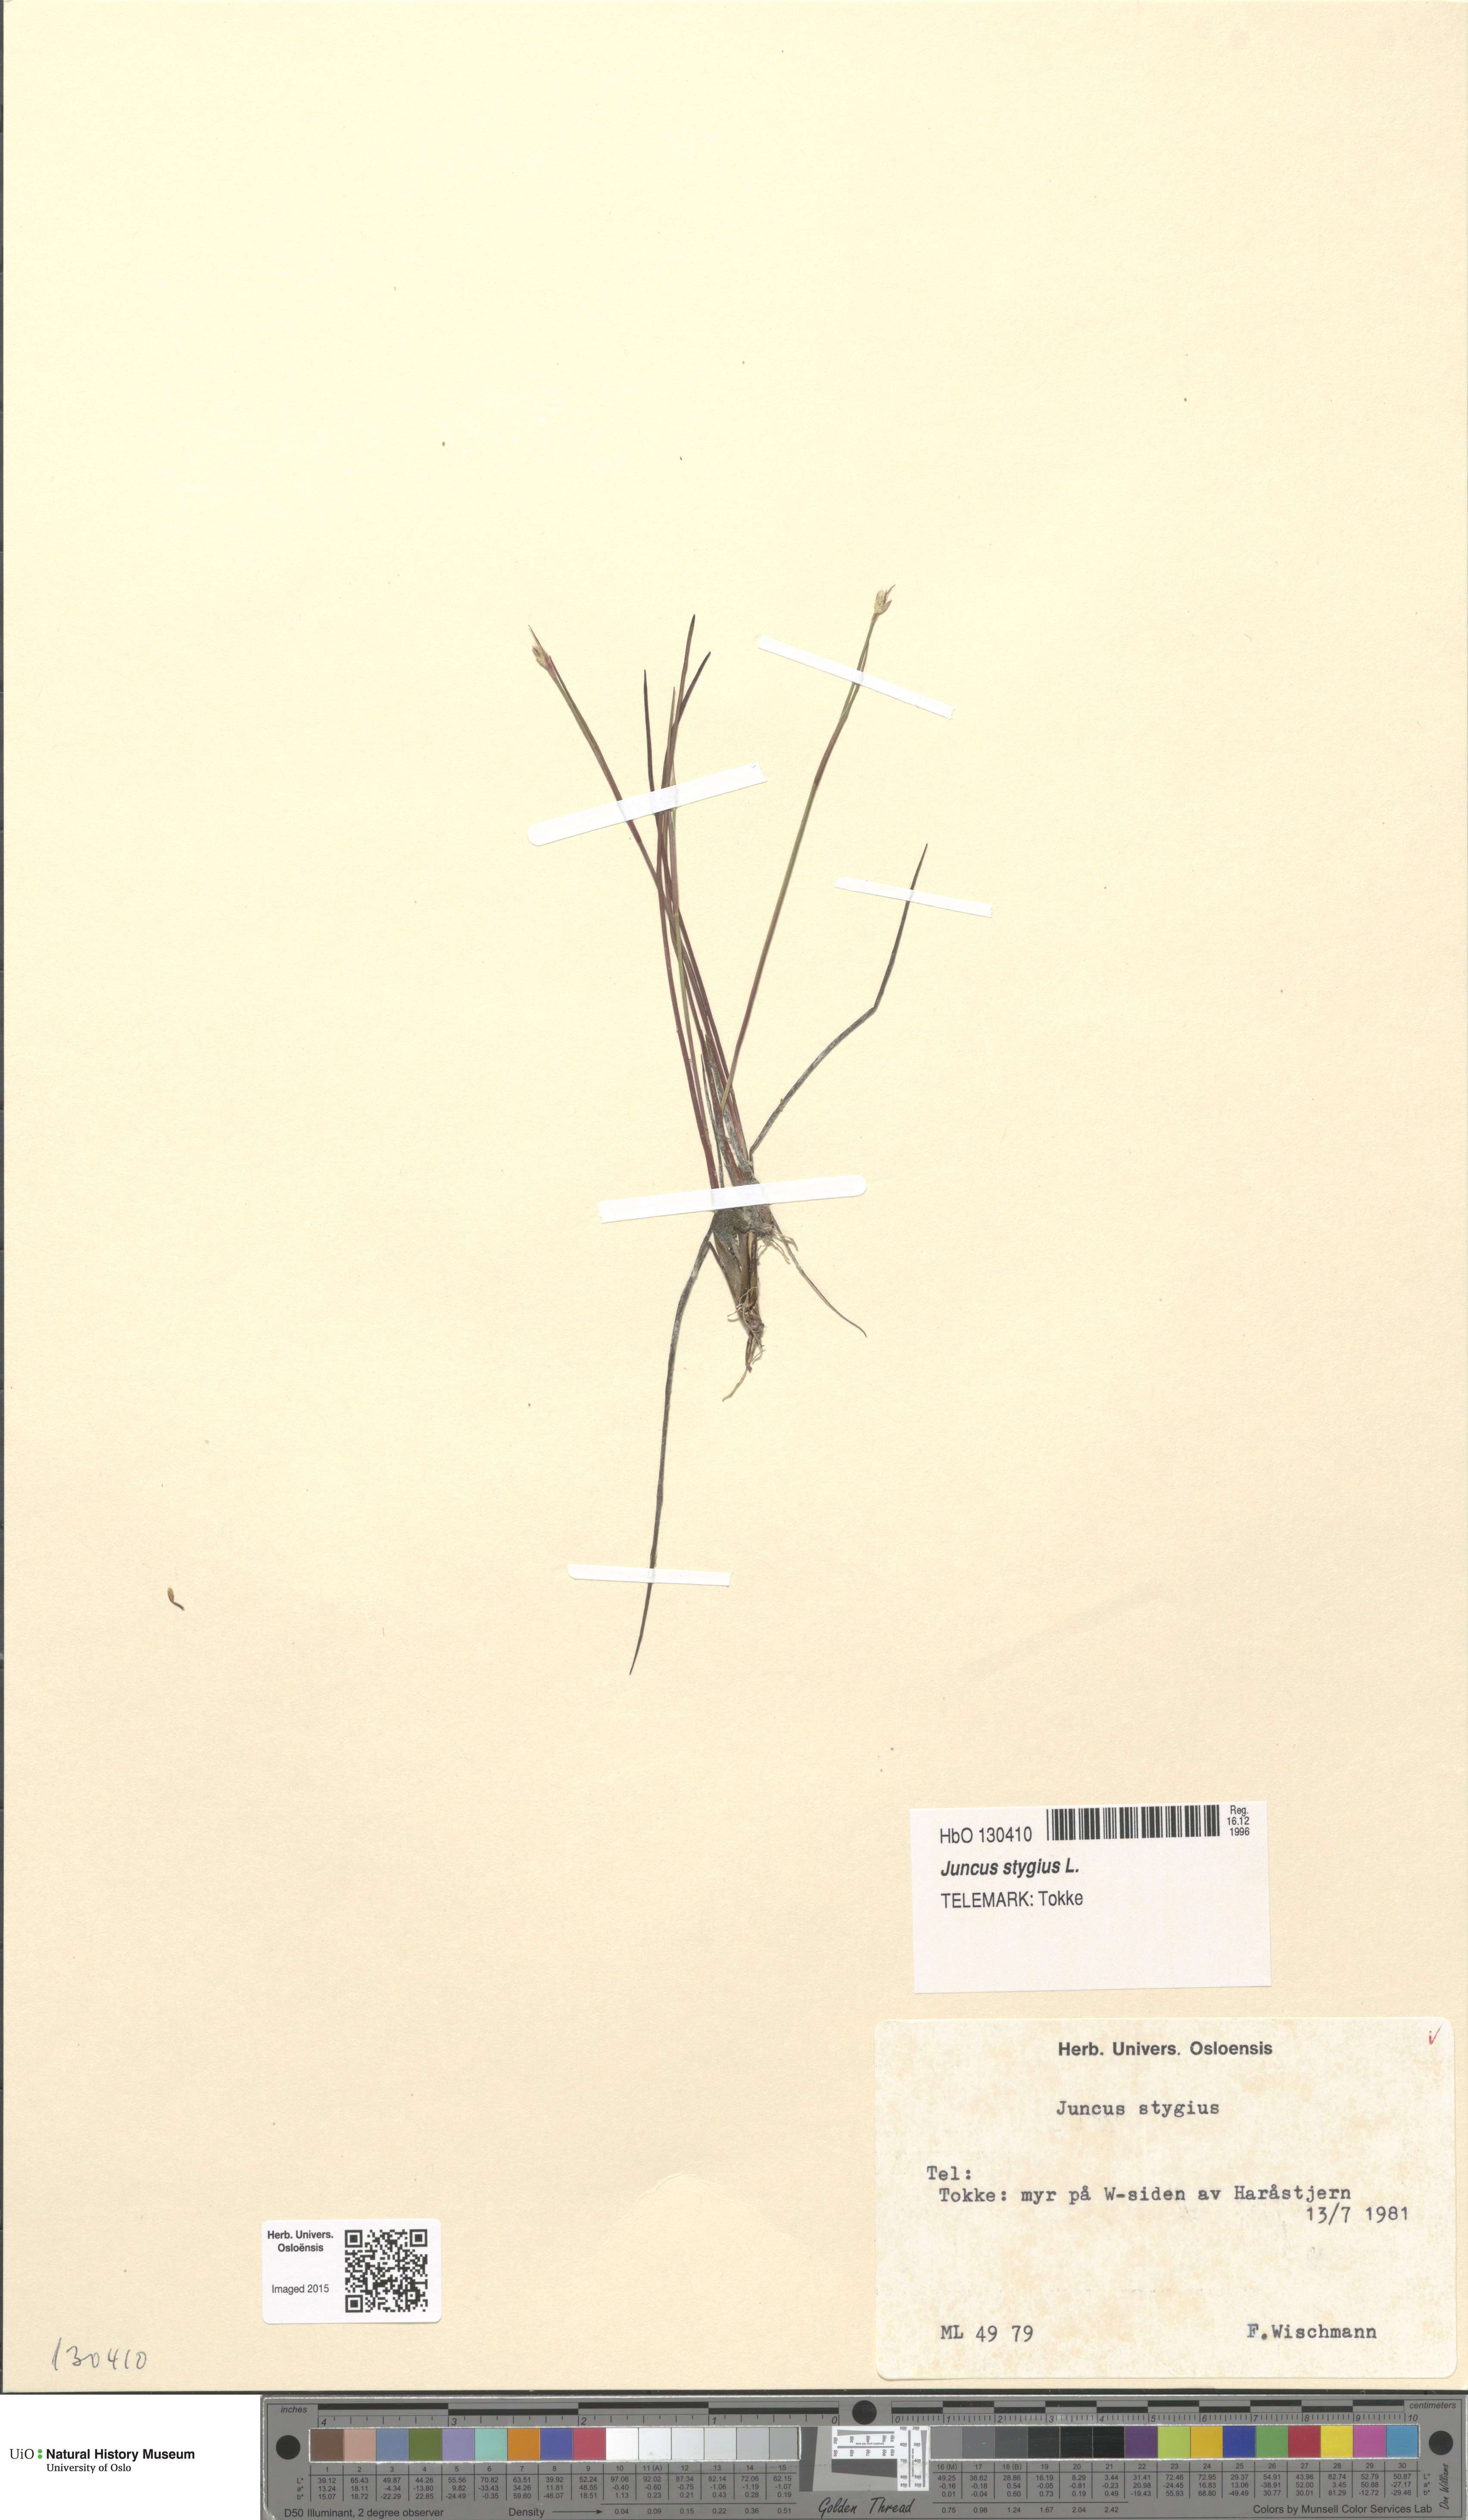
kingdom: Plantae
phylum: Tracheophyta
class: Liliopsida
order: Poales
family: Juncaceae
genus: Juncus
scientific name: Juncus stygius
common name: Bog rush
